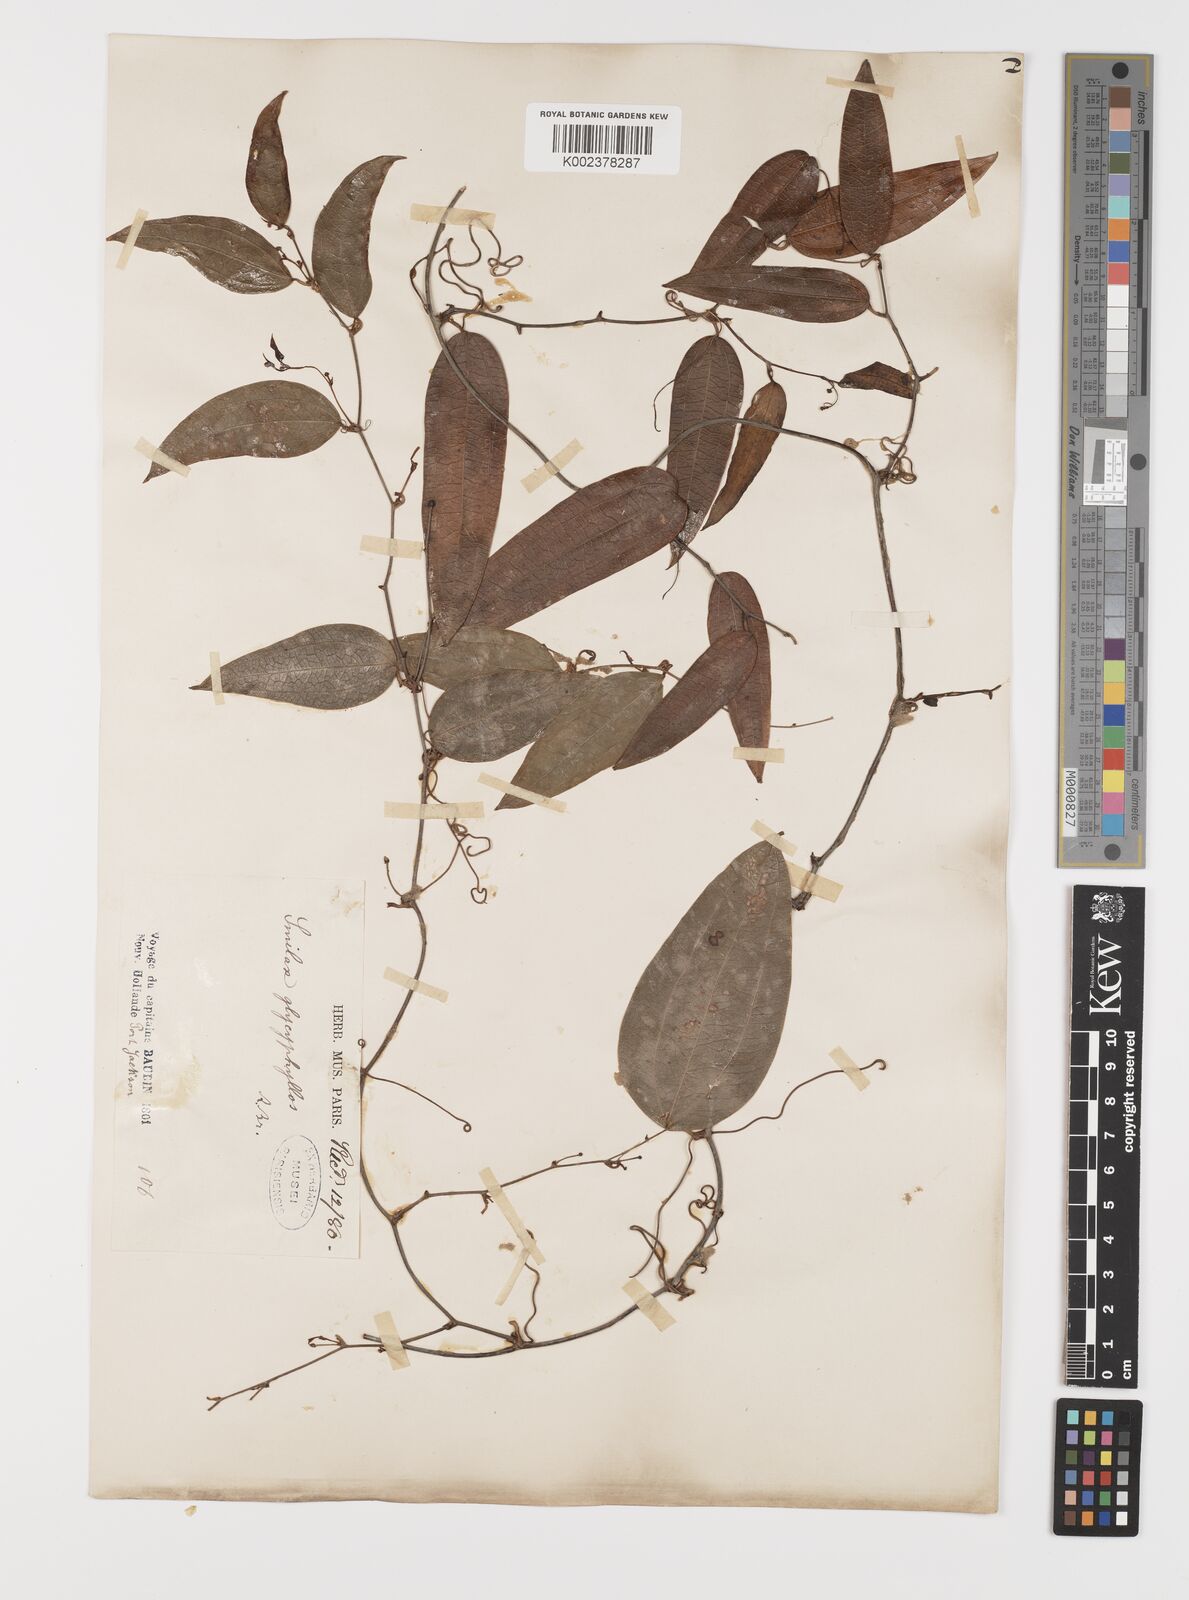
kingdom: Plantae
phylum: Tracheophyta
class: Liliopsida
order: Liliales
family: Smilacaceae
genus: Smilax
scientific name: Smilax leucophylla
